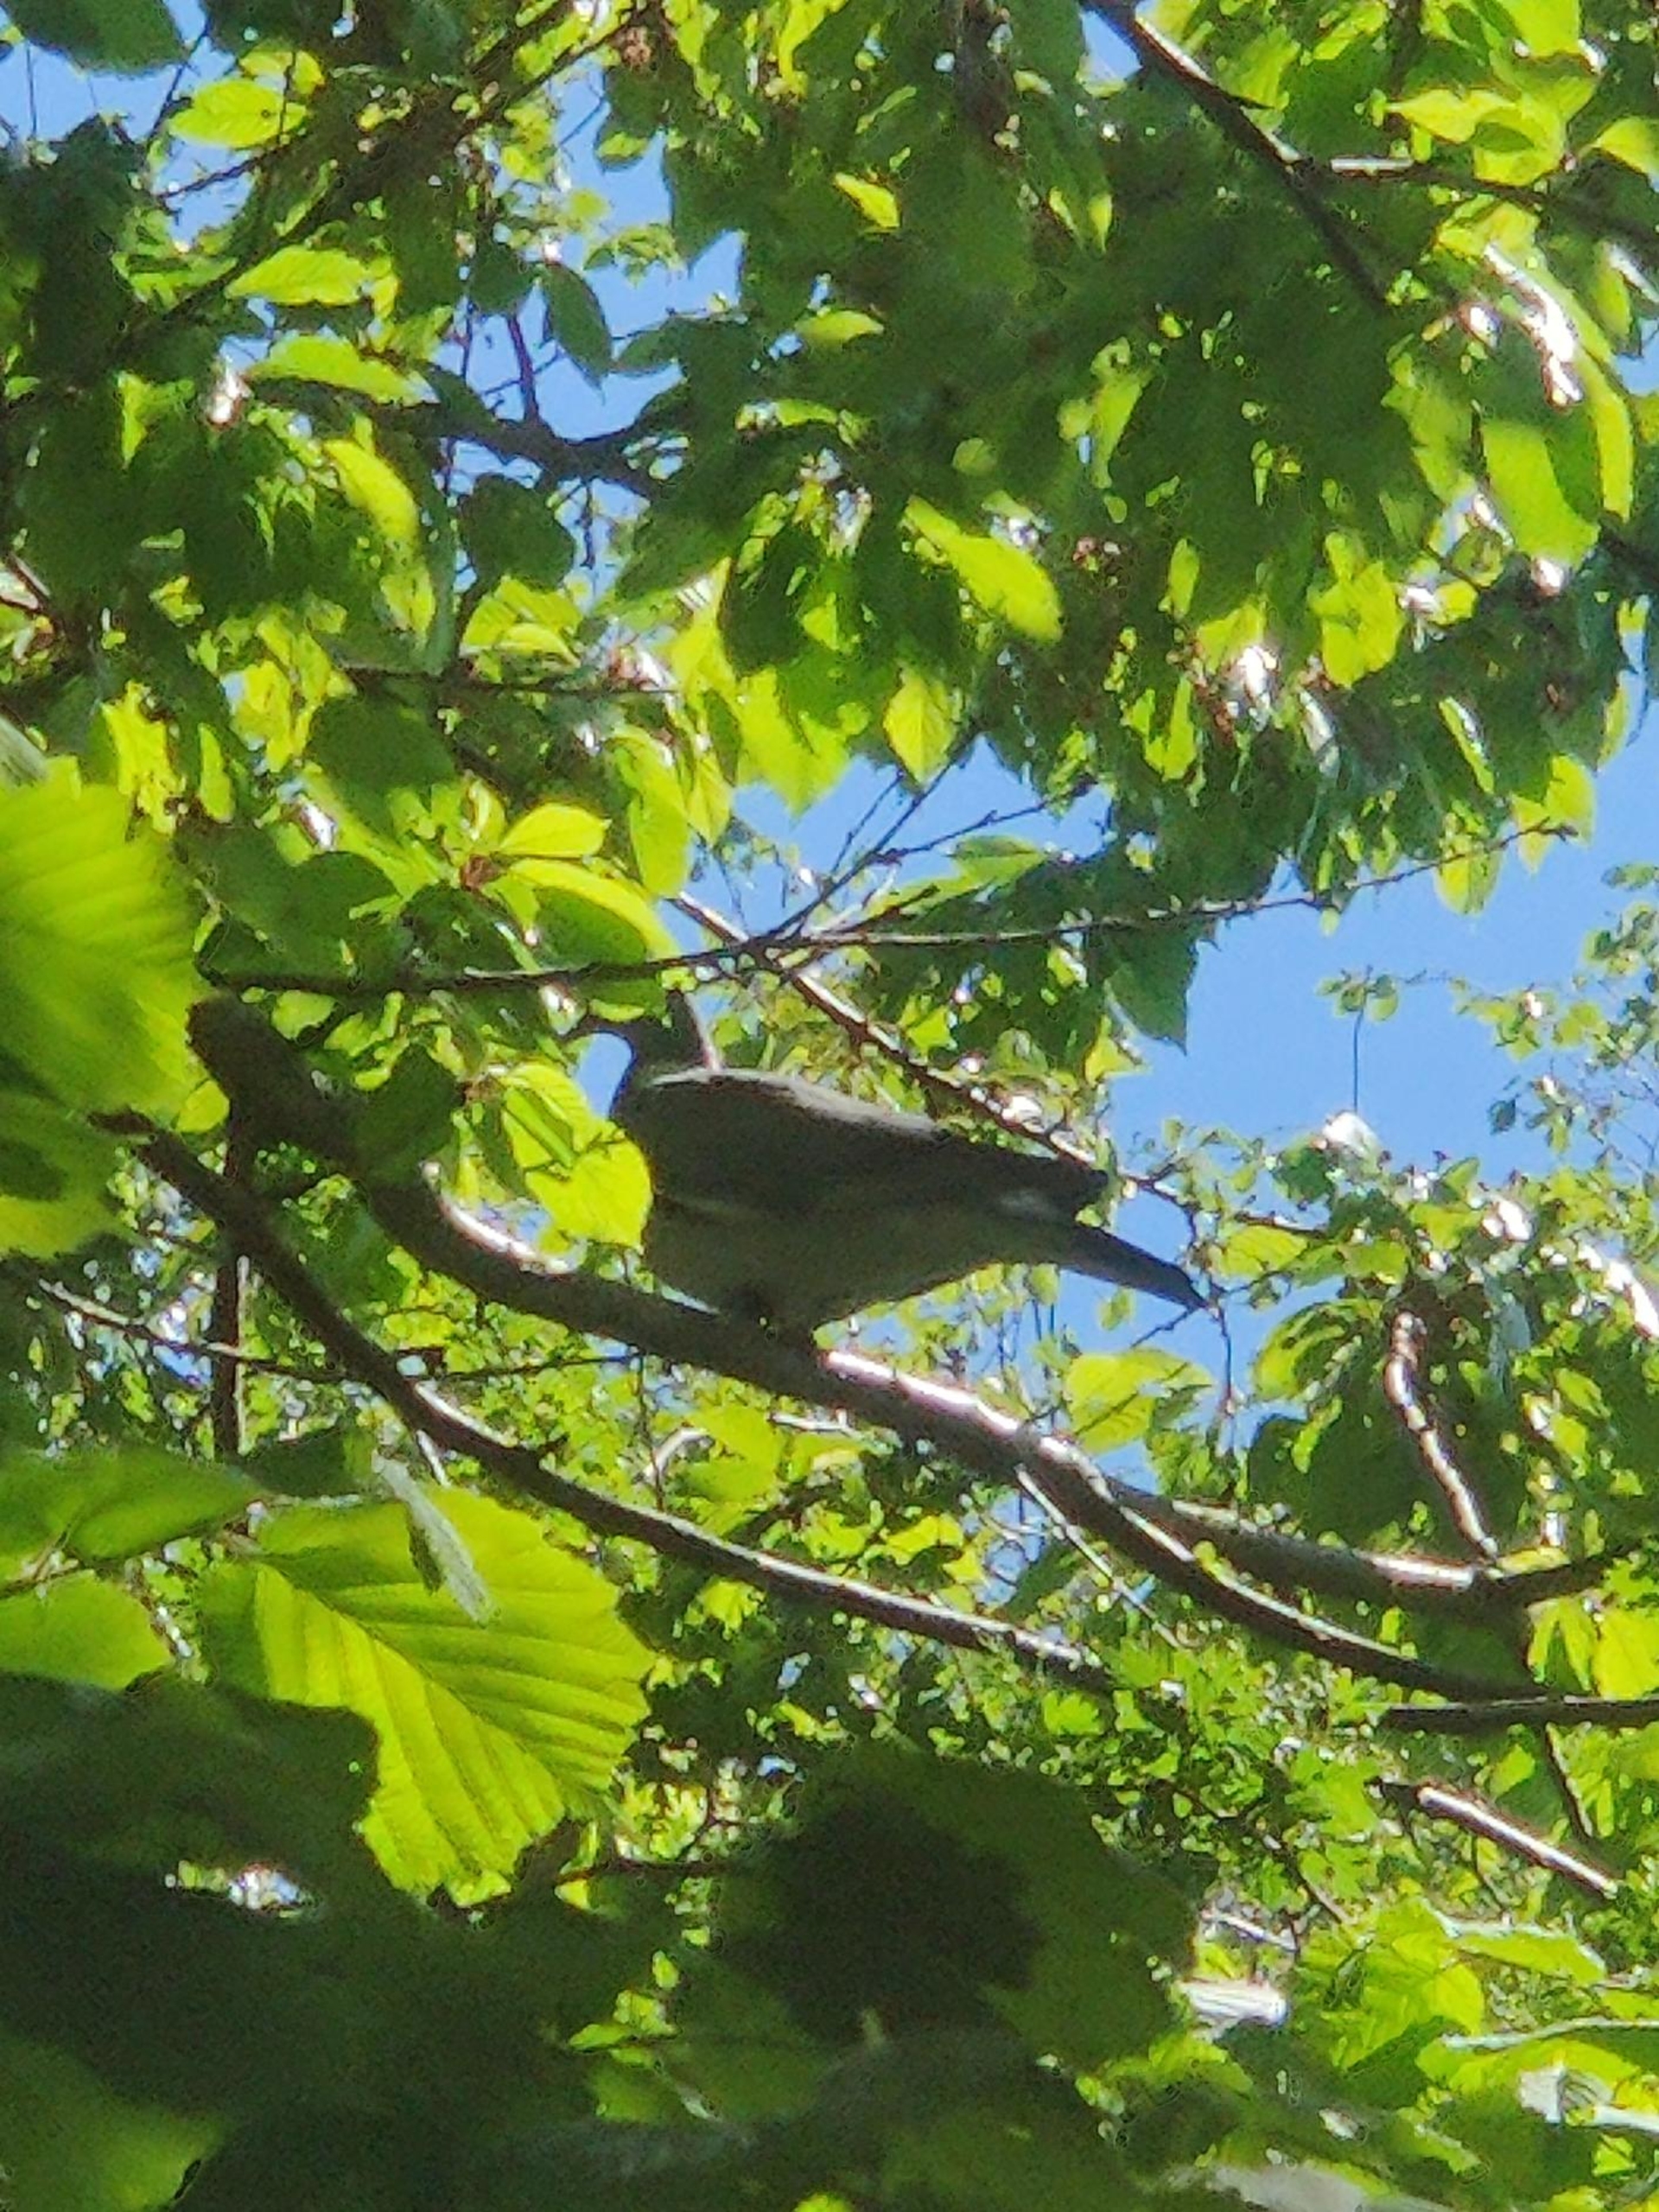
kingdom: Animalia
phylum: Chordata
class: Aves
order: Columbiformes
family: Columbidae
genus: Columba
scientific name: Columba palumbus
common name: Ringdue
